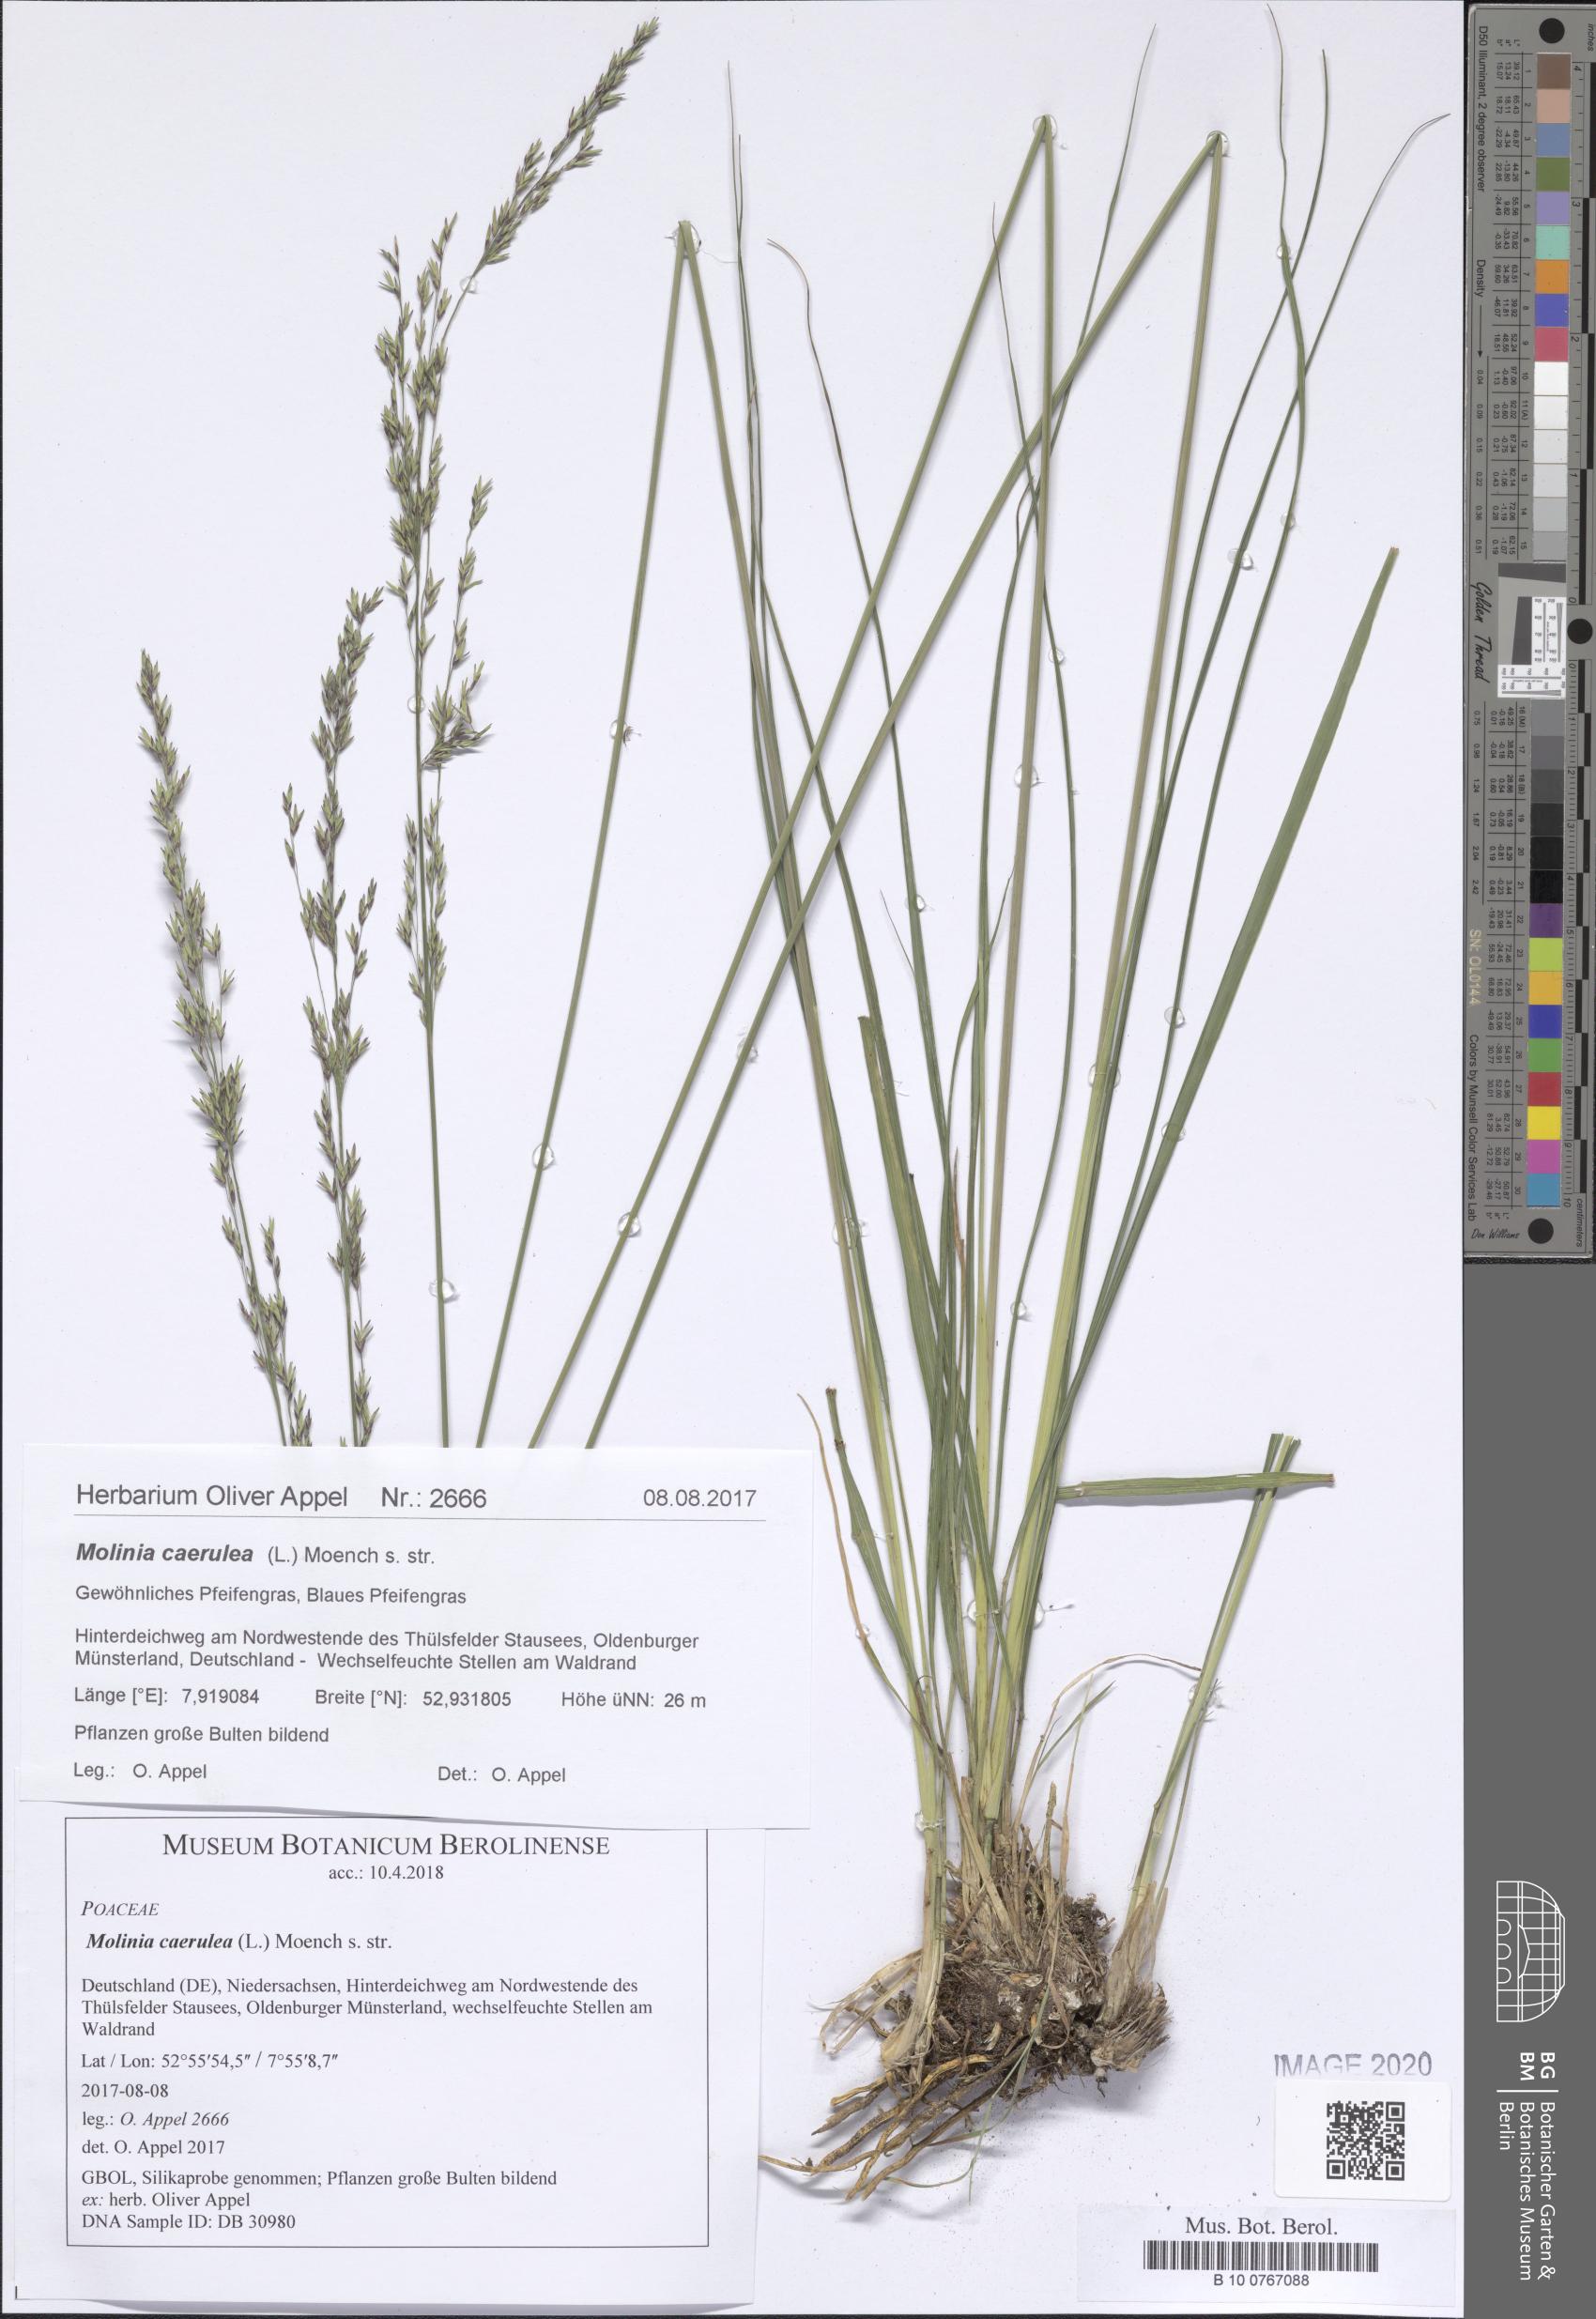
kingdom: Plantae
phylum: Tracheophyta
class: Liliopsida
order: Poales
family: Poaceae
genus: Molinia
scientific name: Molinia caerulea
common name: Purple moor-grass
